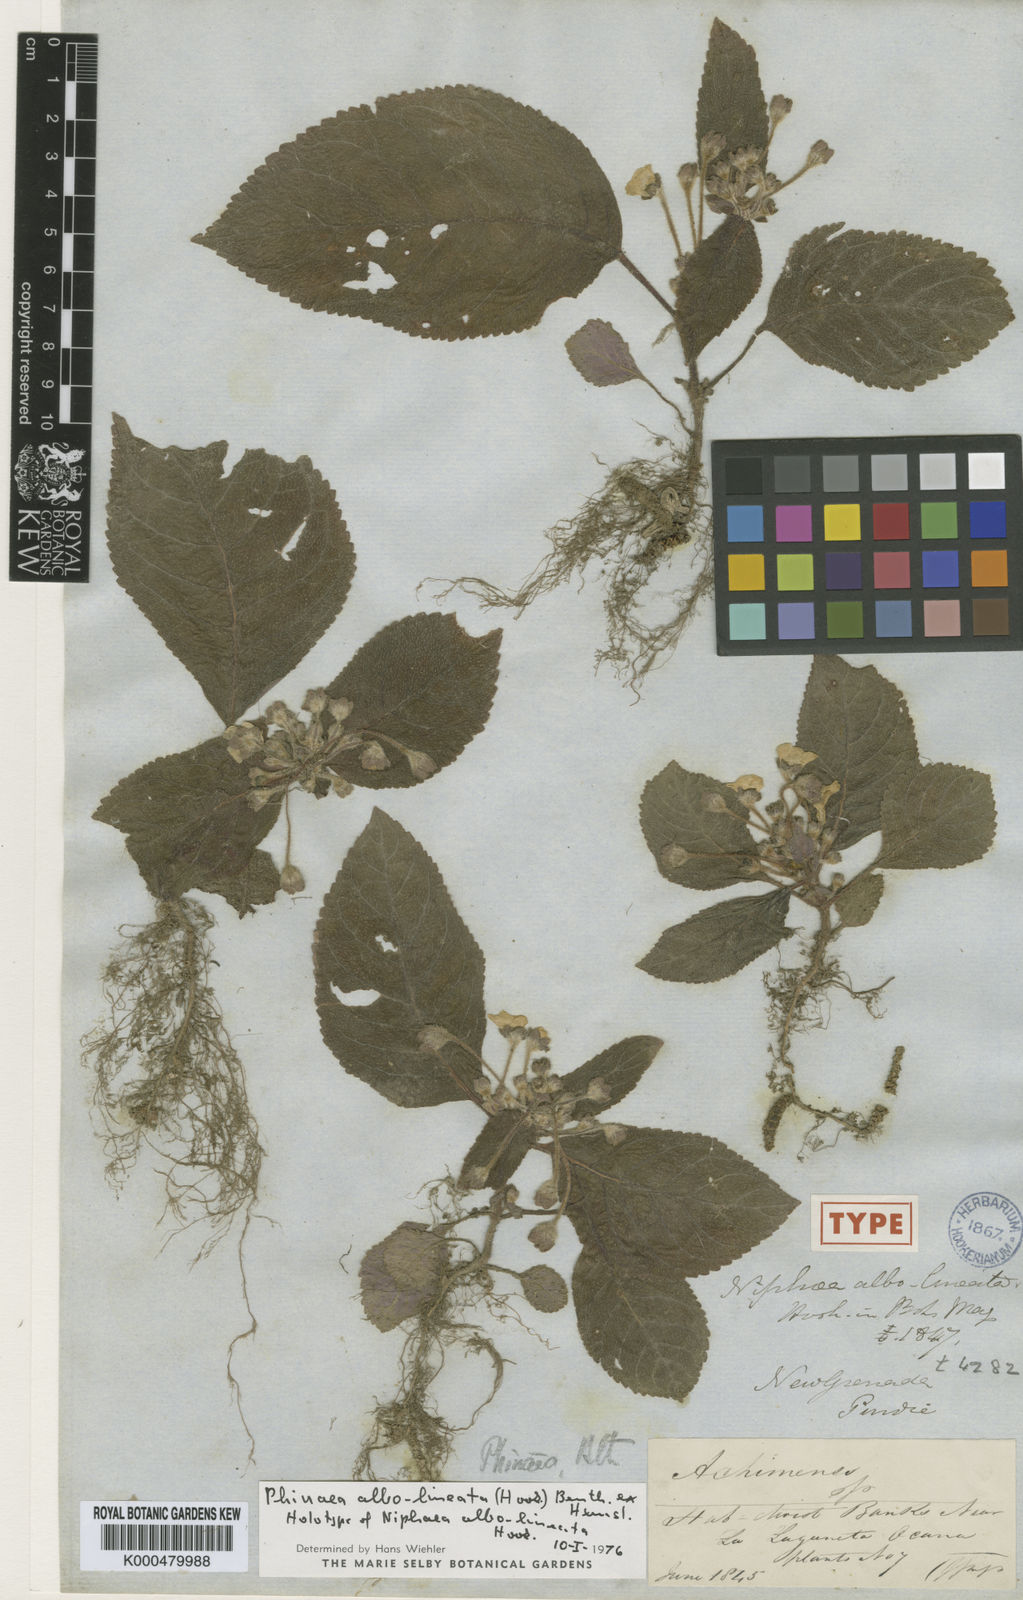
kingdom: Plantae
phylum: Tracheophyta
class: Magnoliopsida
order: Lamiales
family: Gesneriaceae
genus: Phinaea
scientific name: Phinaea albolineata
